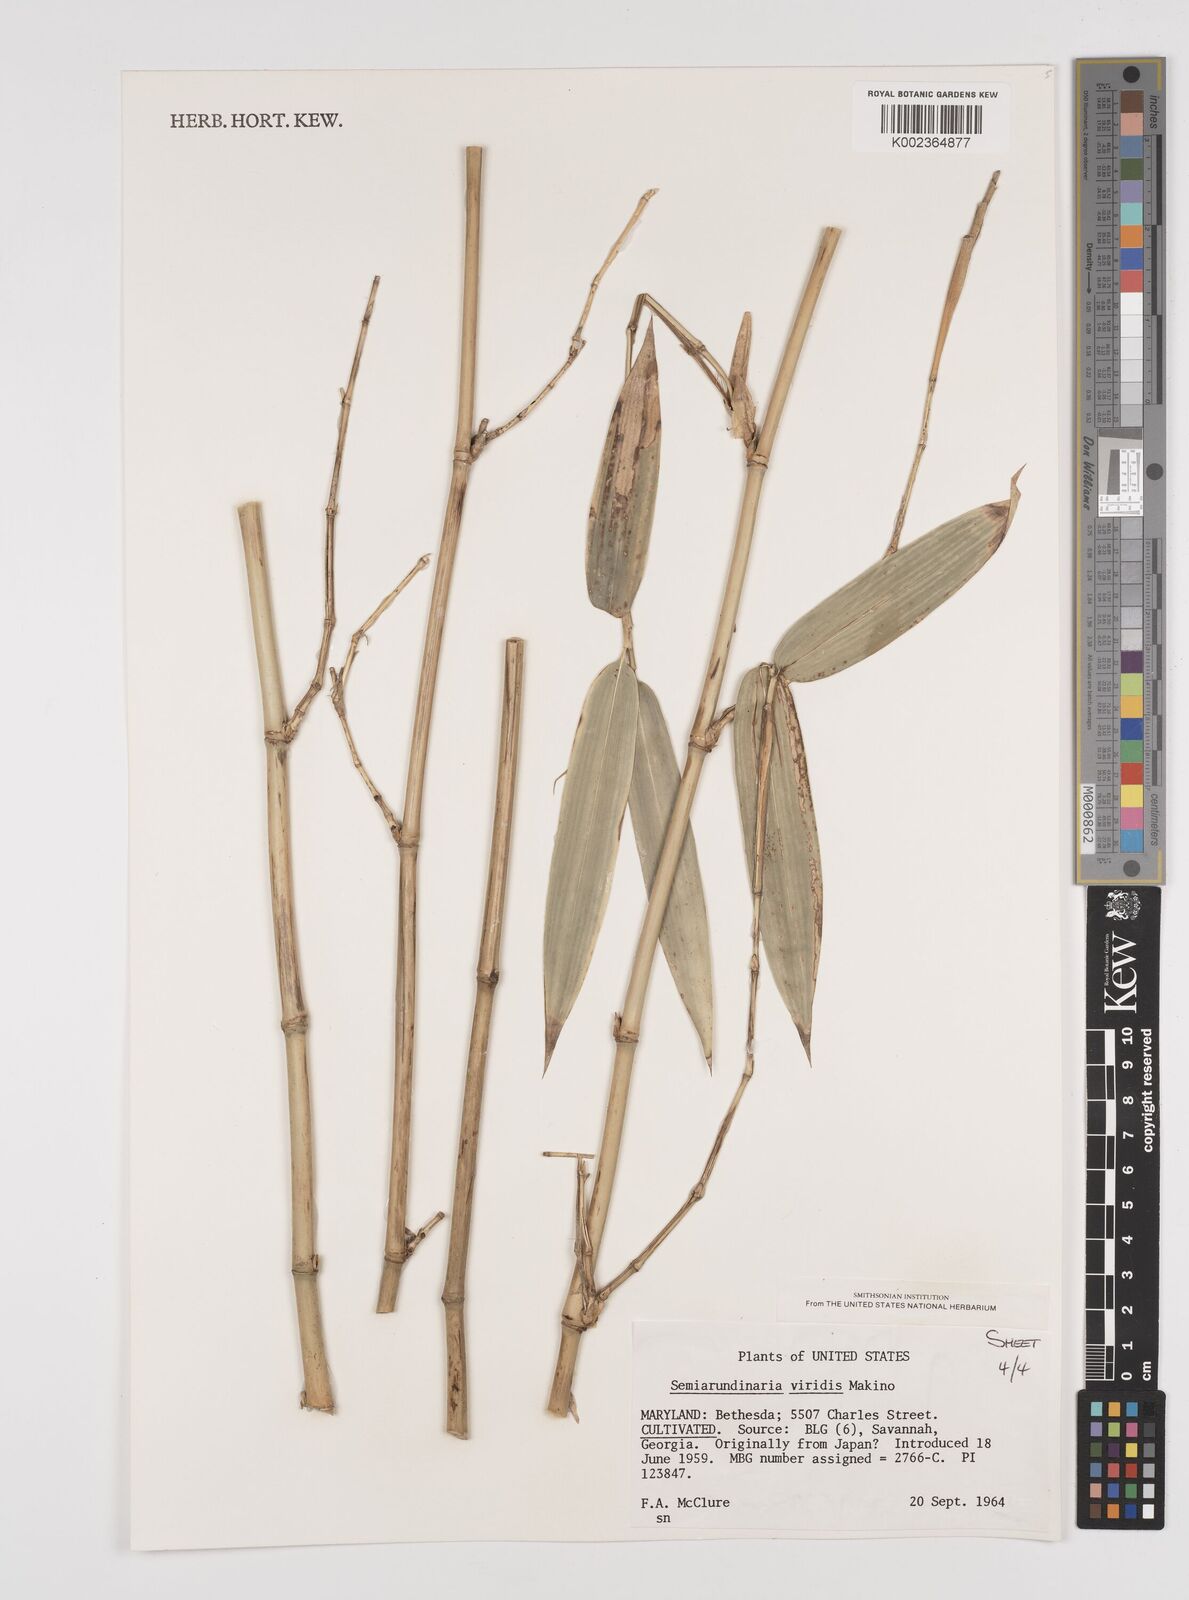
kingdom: Plantae
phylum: Tracheophyta
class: Liliopsida
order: Poales
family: Poaceae
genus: Semiarundinaria
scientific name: Semiarundinaria fastuosa
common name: Narihira bamboo
